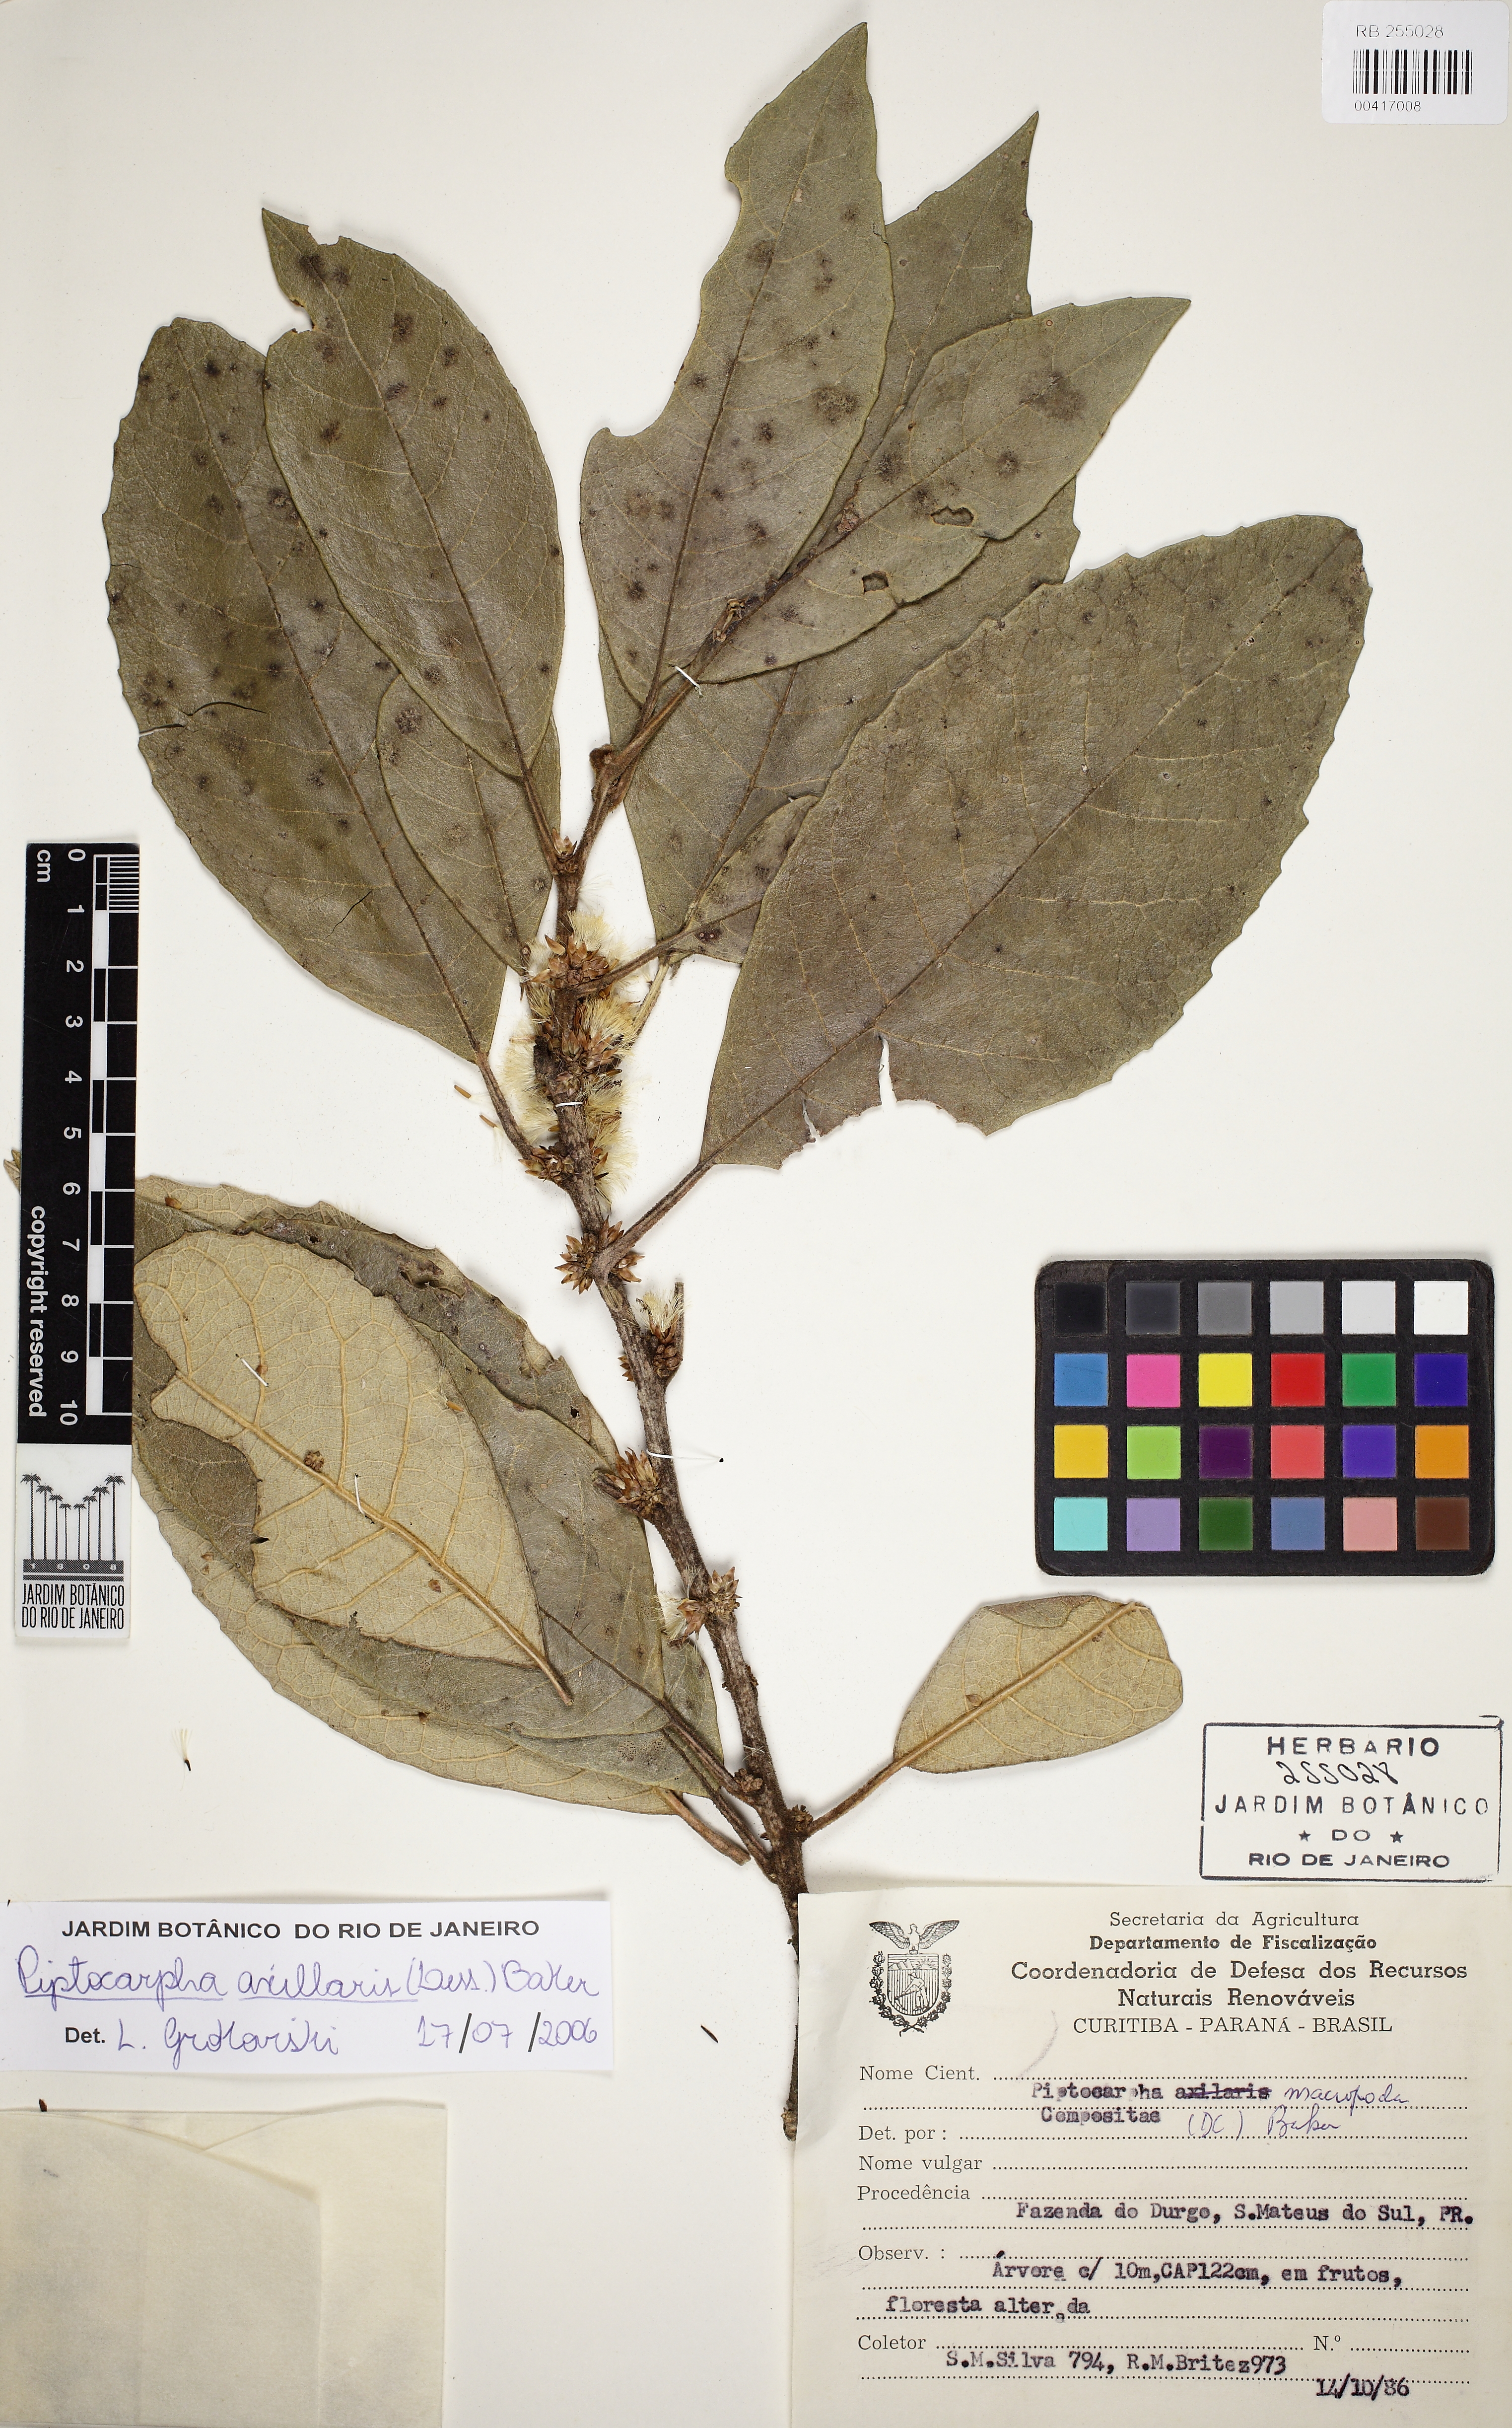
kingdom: Plantae
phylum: Tracheophyta
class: Magnoliopsida
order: Asterales
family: Asteraceae
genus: Piptocarpha
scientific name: Piptocarpha axillaris
